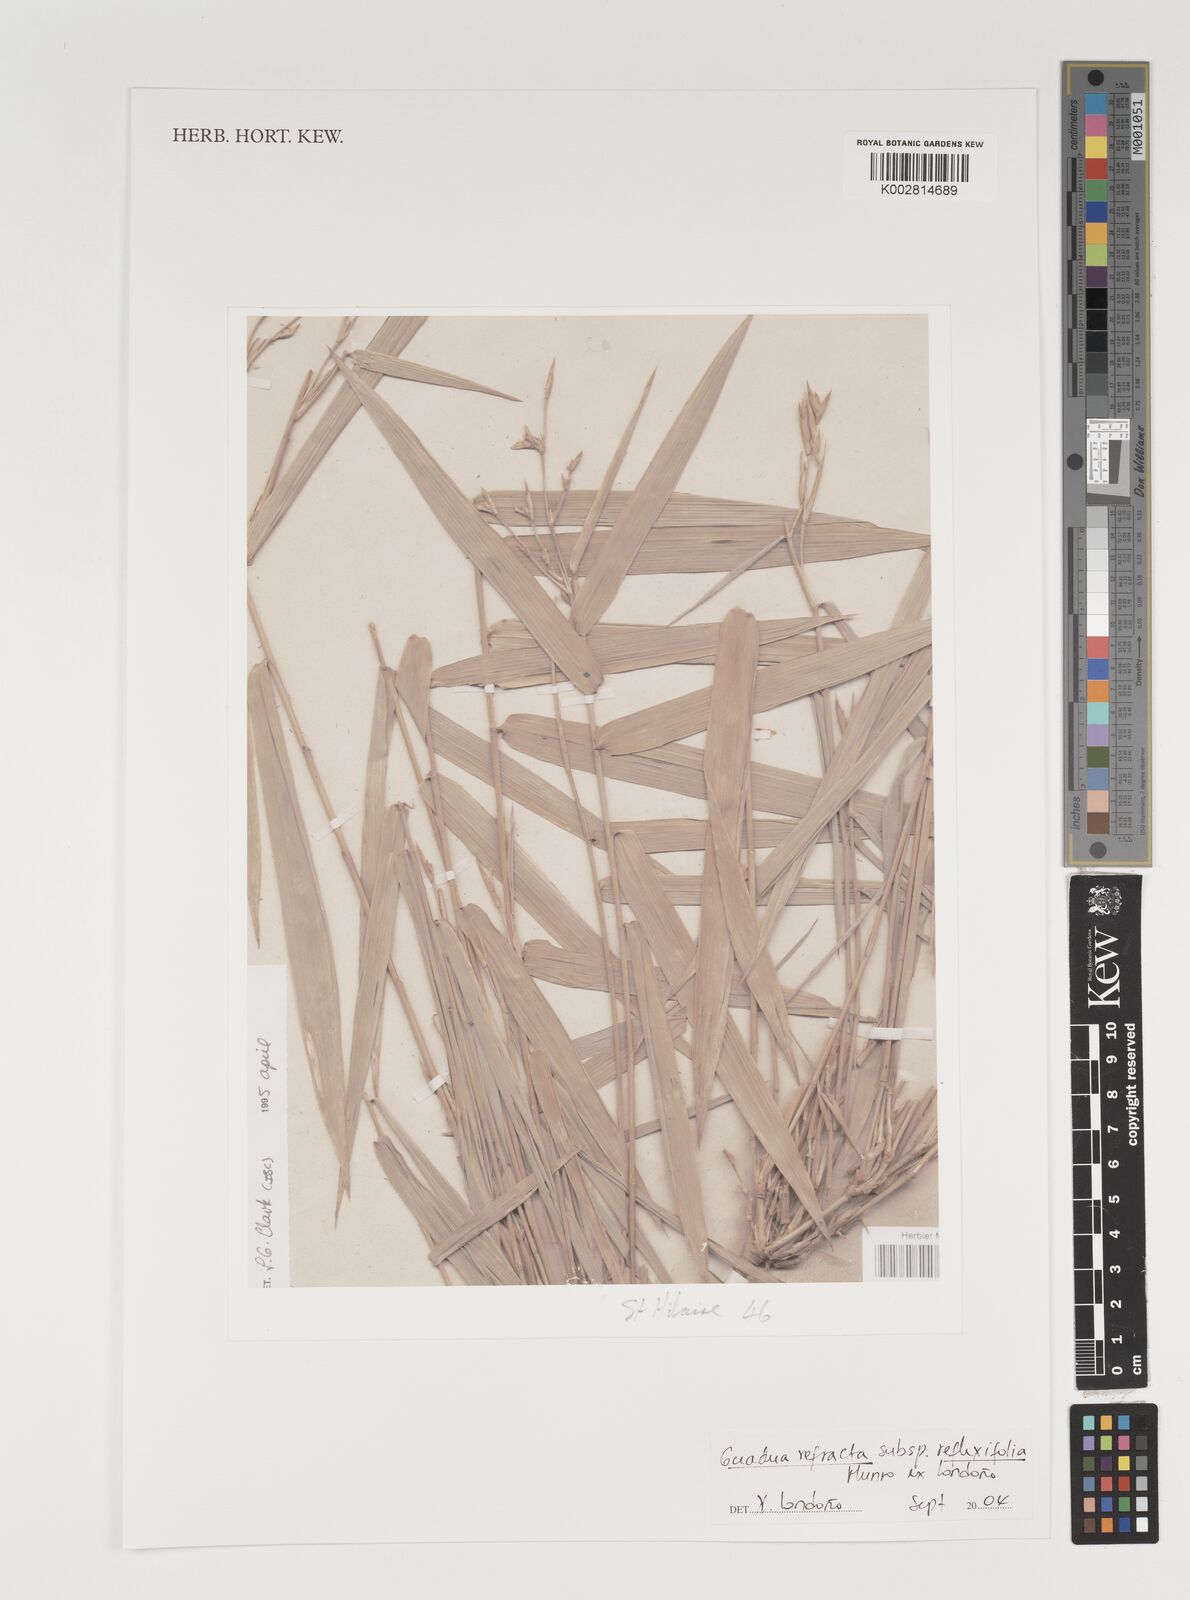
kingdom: Plantae
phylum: Tracheophyta
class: Liliopsida
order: Poales
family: Poaceae
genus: Guadua
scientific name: Guadua refracta
